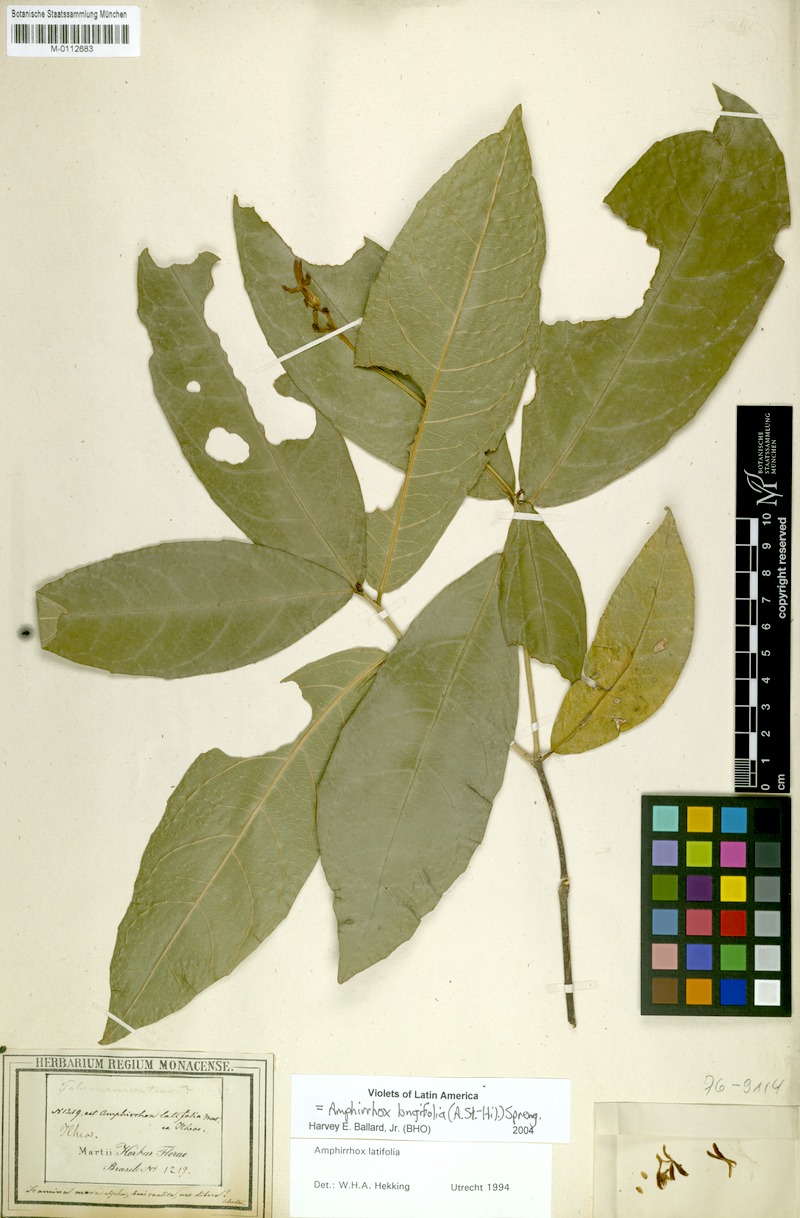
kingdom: Plantae
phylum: Tracheophyta
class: Magnoliopsida
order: Malpighiales
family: Violaceae
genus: Amphirrhox
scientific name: Amphirrhox longifolia
